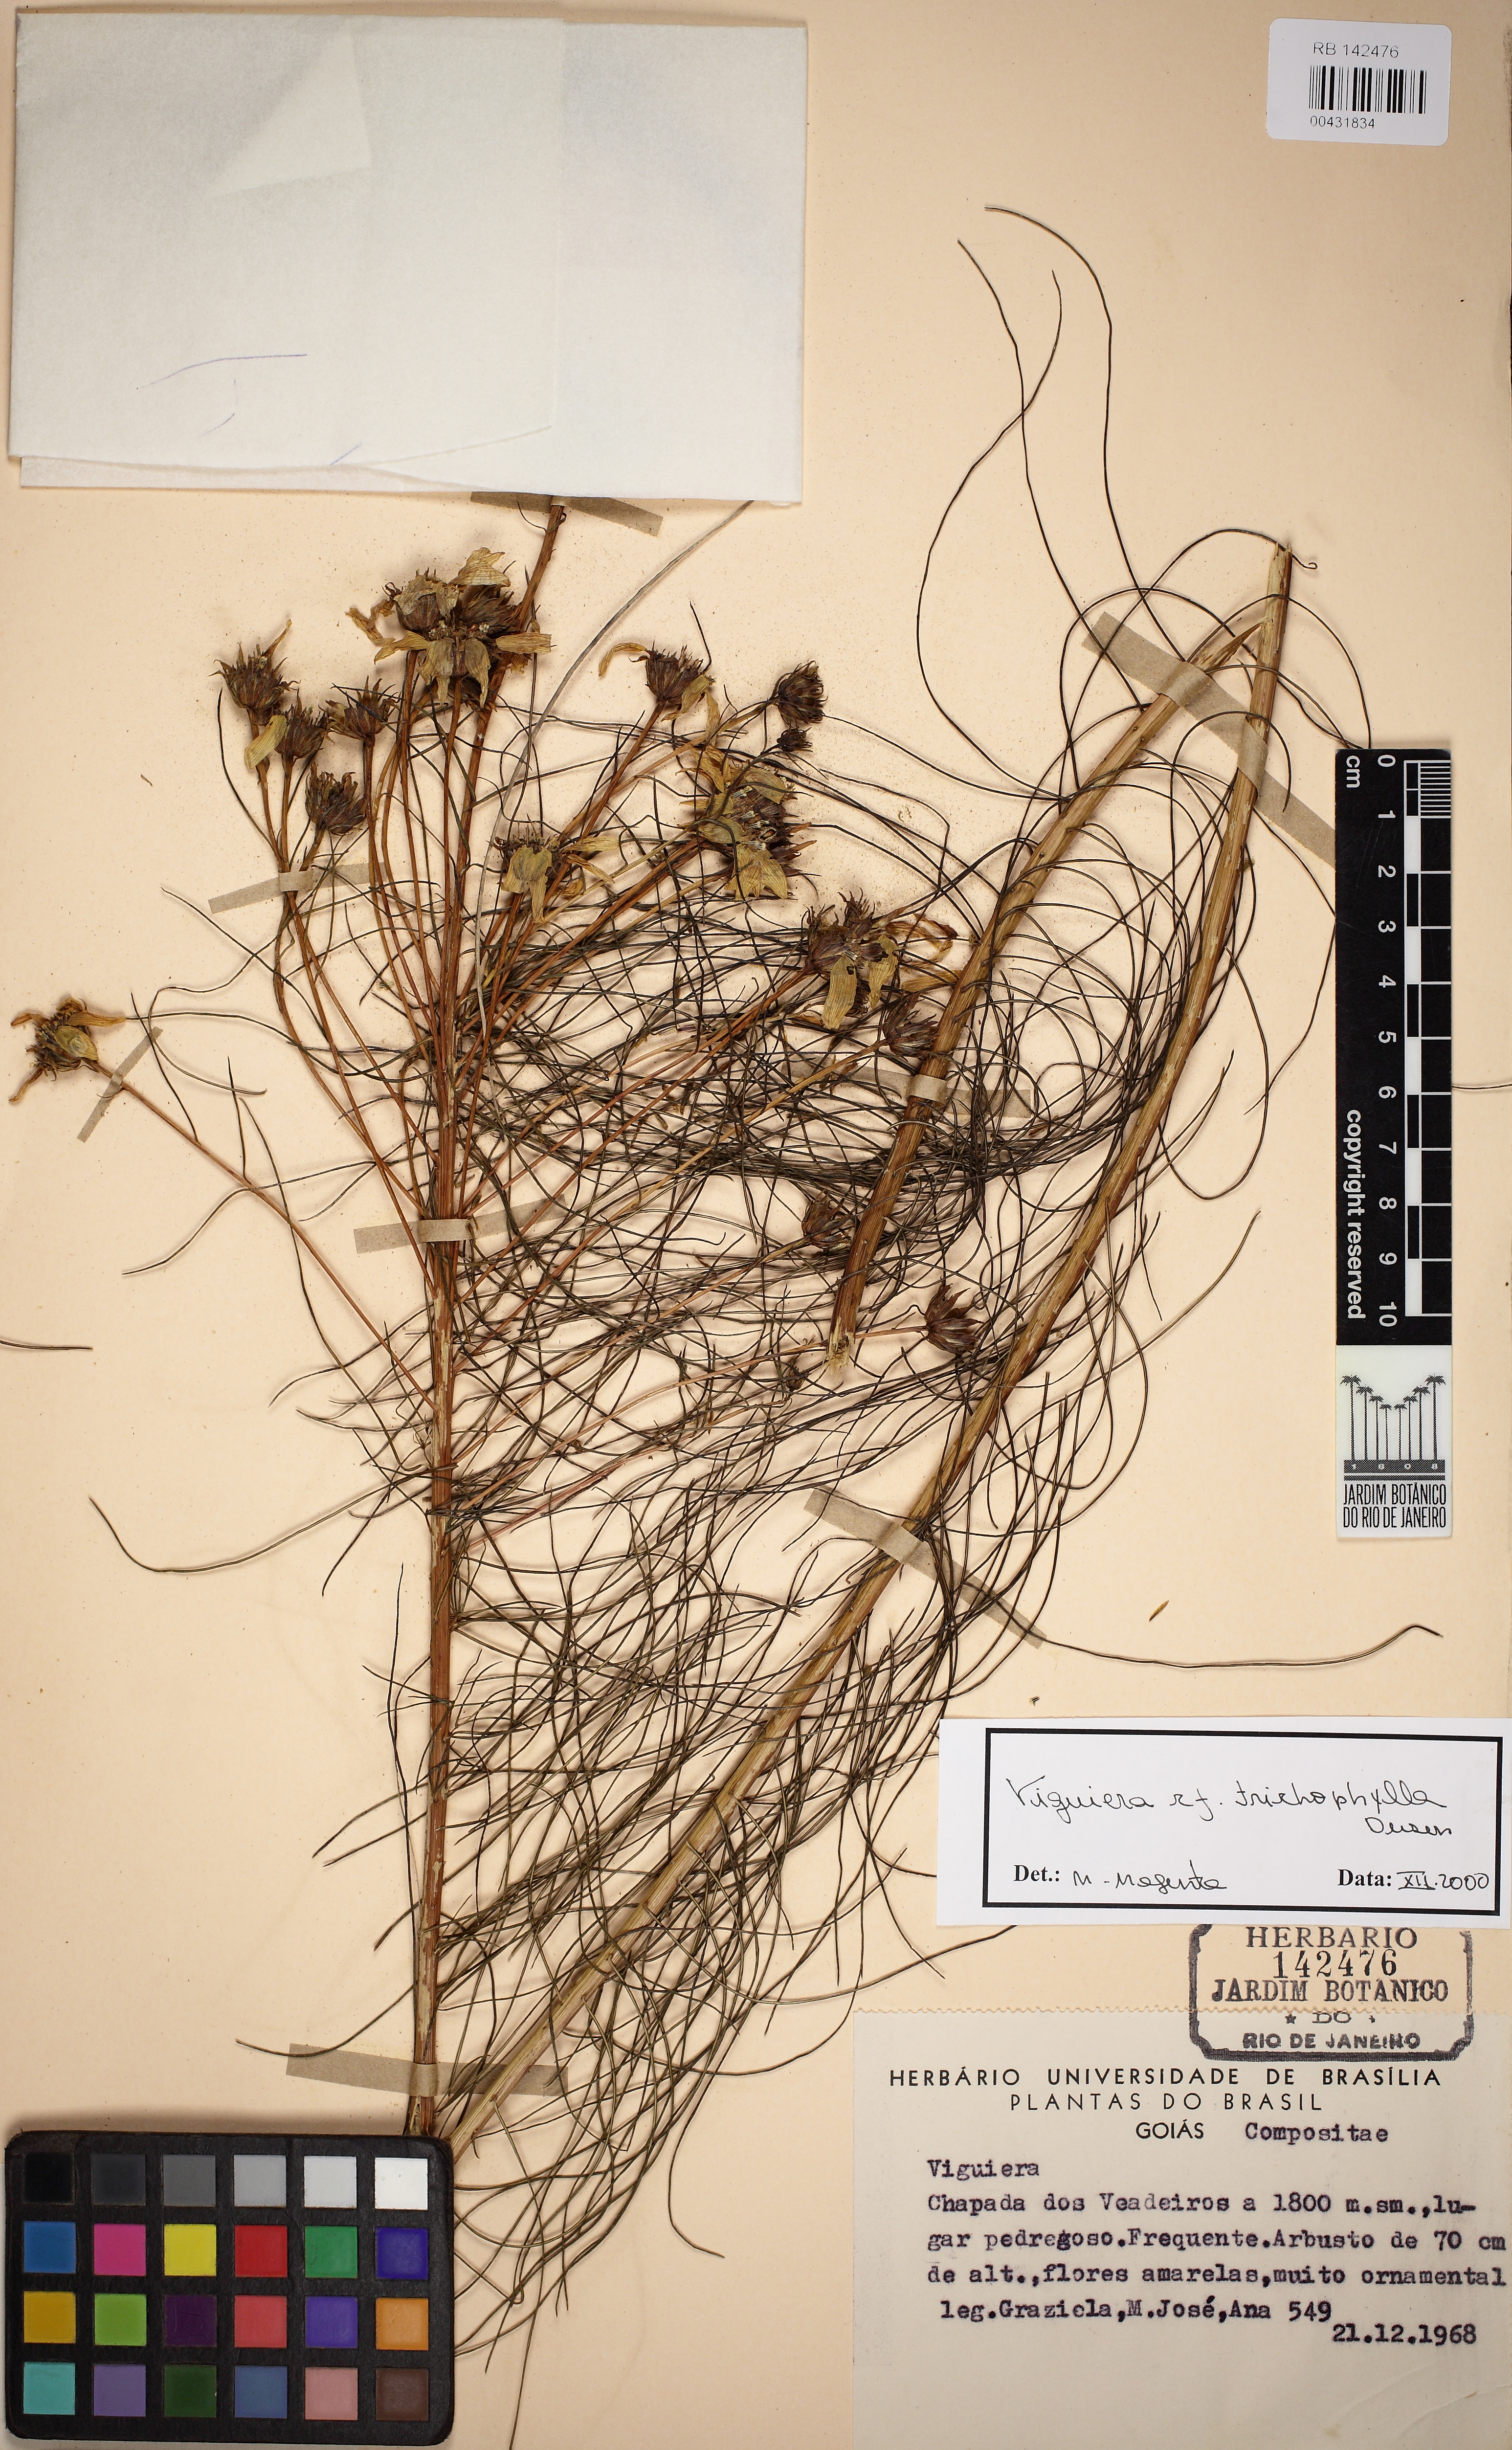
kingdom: Plantae
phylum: Tracheophyta
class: Magnoliopsida
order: Asterales
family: Asteraceae
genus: Aldama
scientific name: Aldama trichophylla
